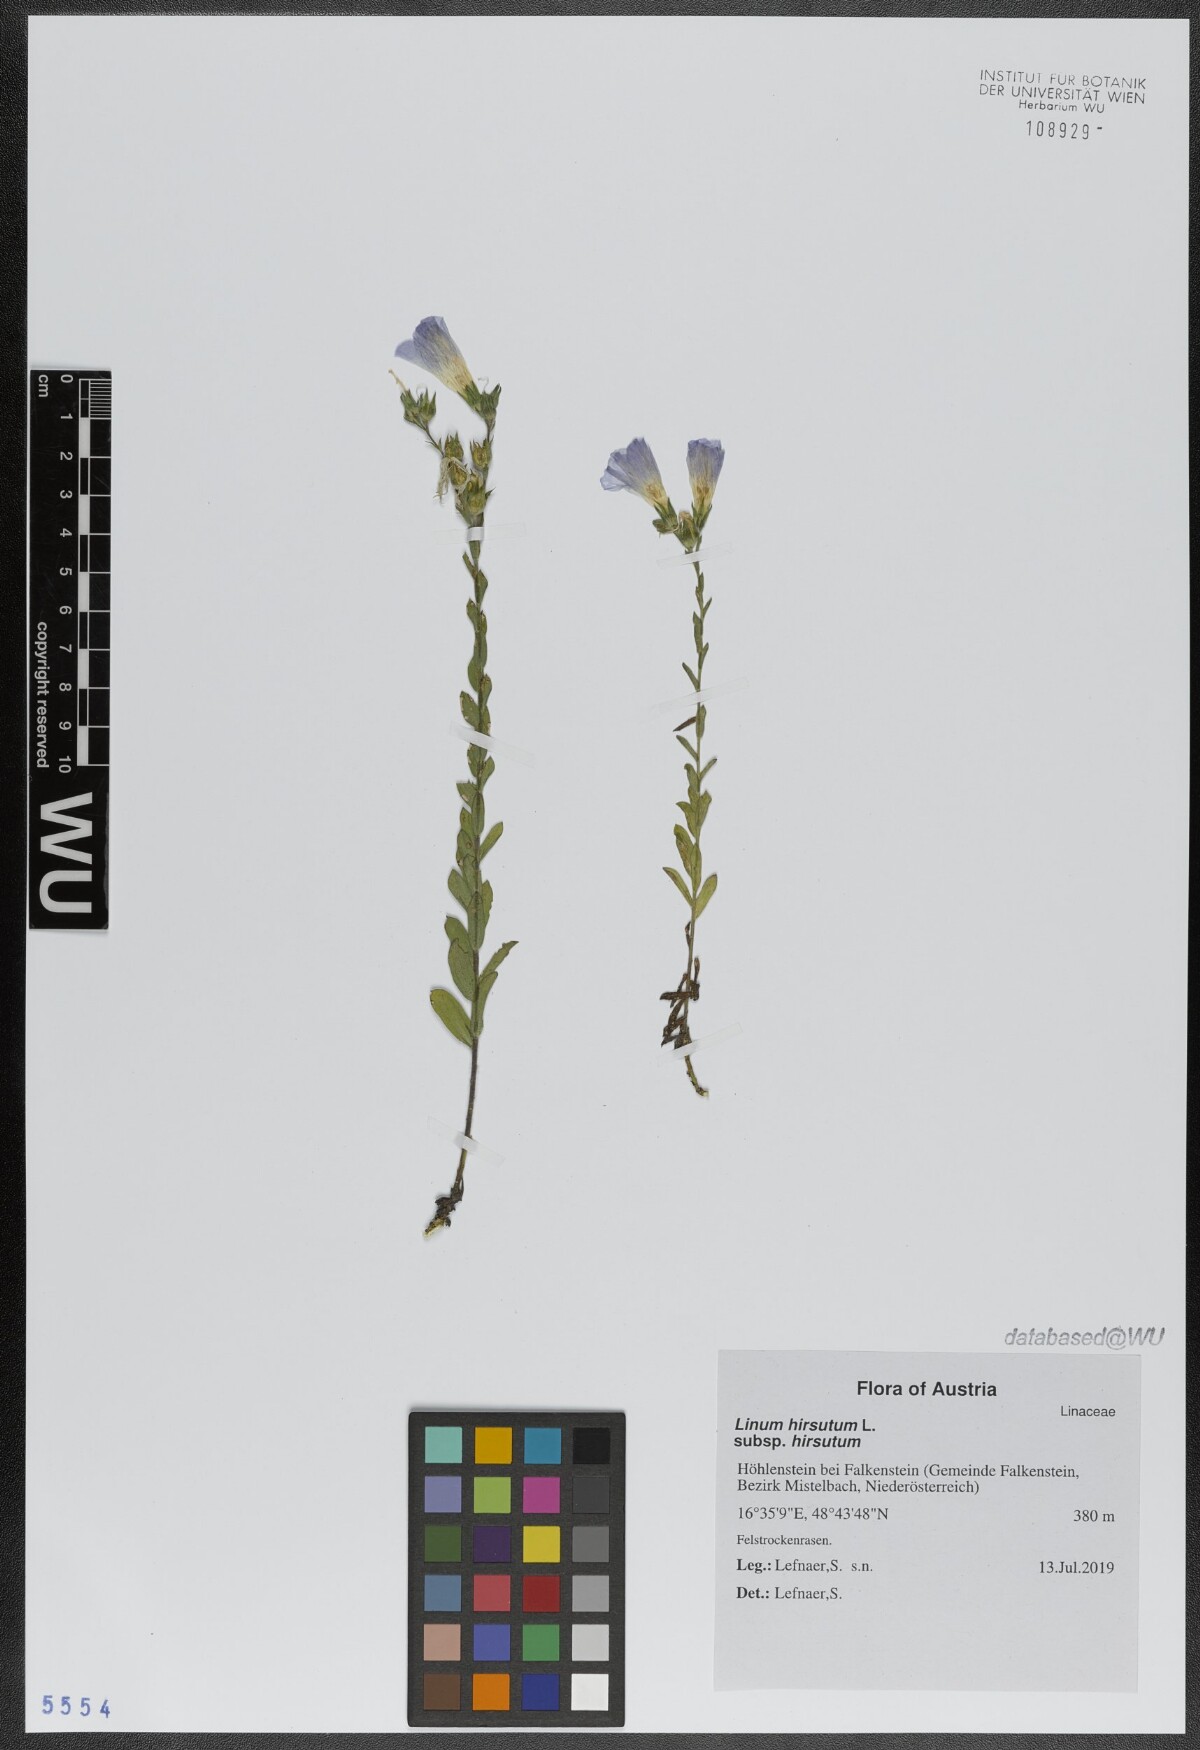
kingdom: Plantae
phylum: Tracheophyta
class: Magnoliopsida
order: Malpighiales
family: Linaceae
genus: Linum
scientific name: Linum hirsutum
